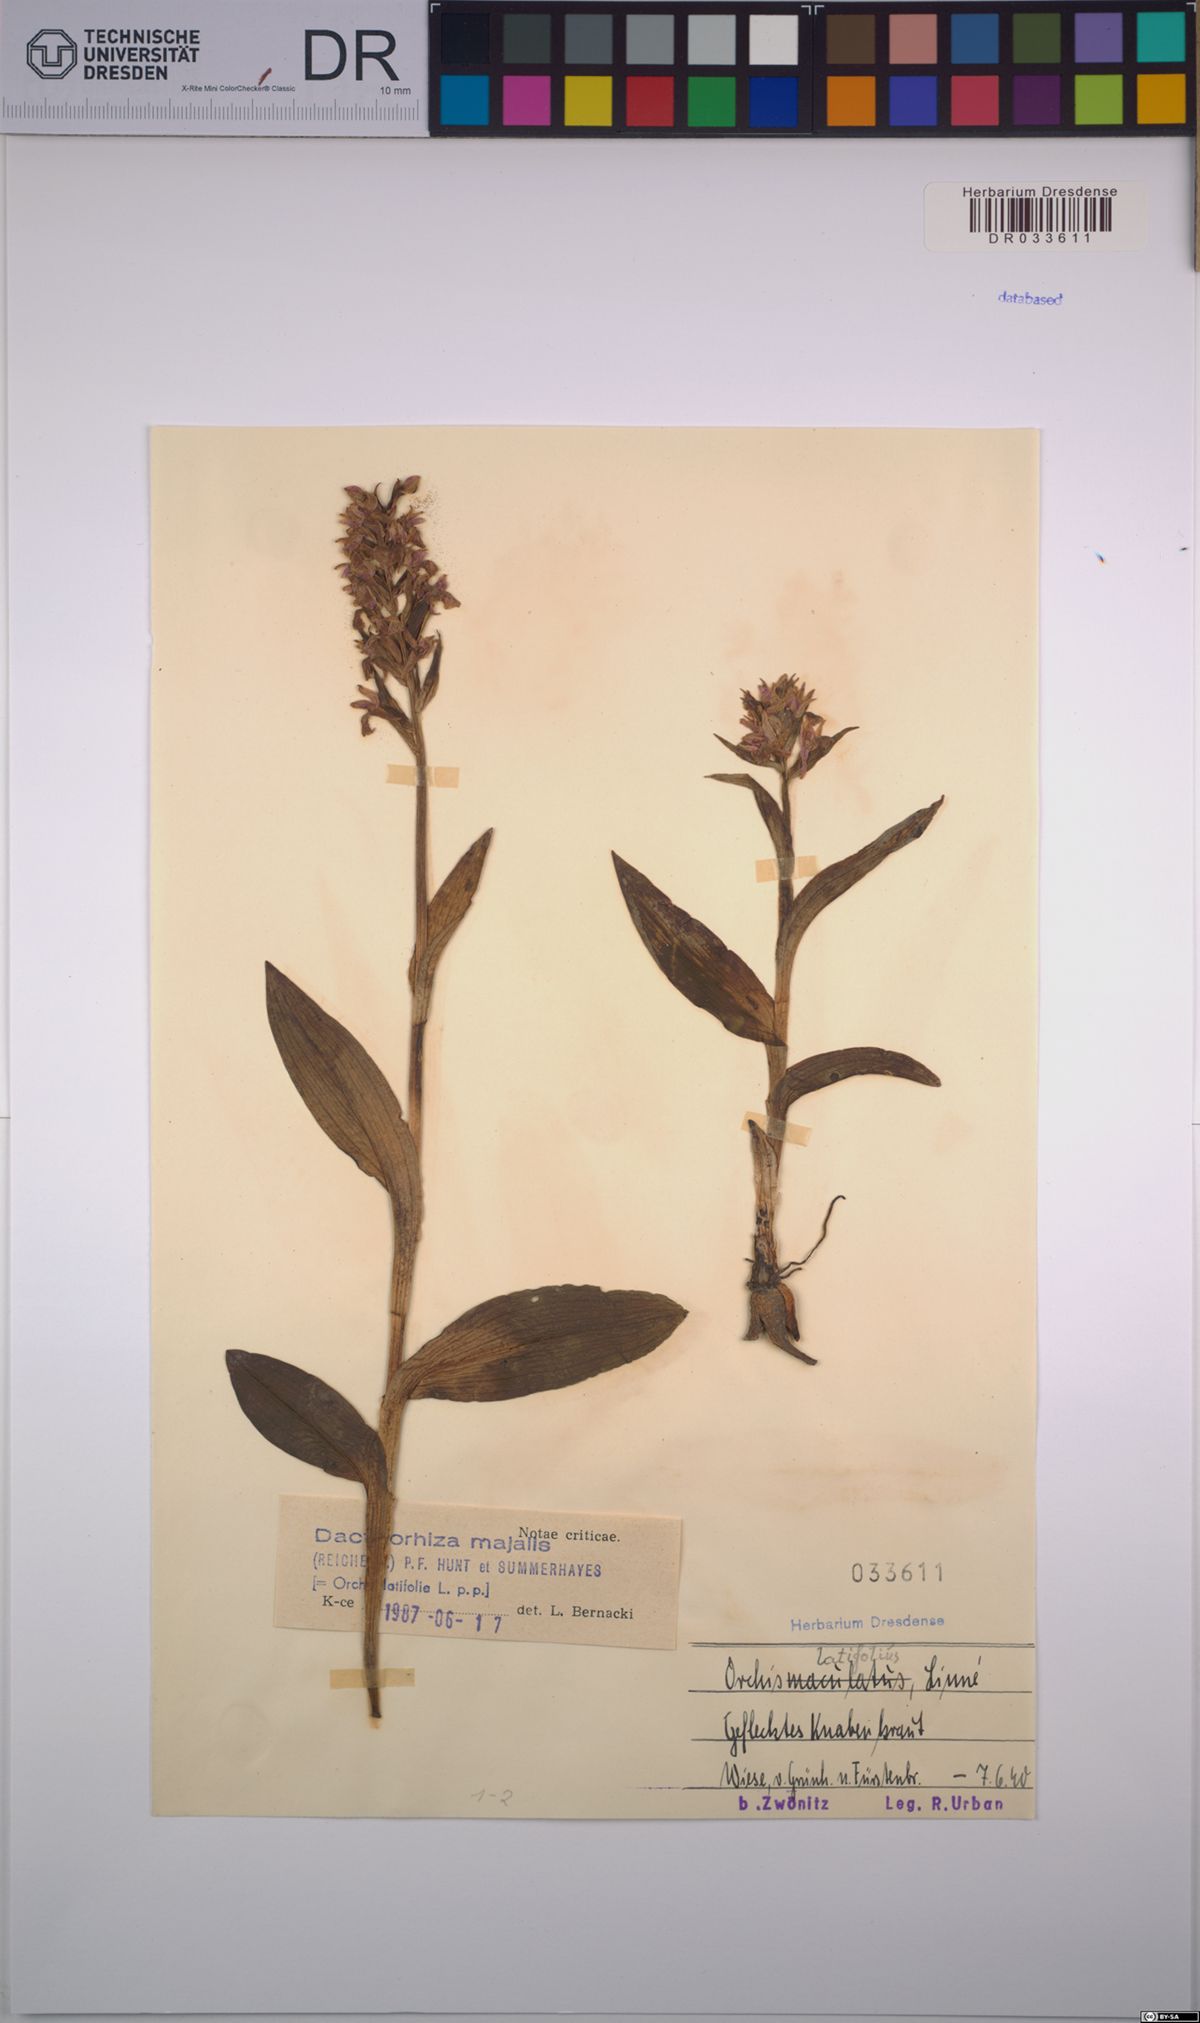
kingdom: Plantae
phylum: Tracheophyta
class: Liliopsida
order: Asparagales
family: Orchidaceae
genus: Dactylorhiza
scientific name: Dactylorhiza majalis
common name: Marsh orchid
